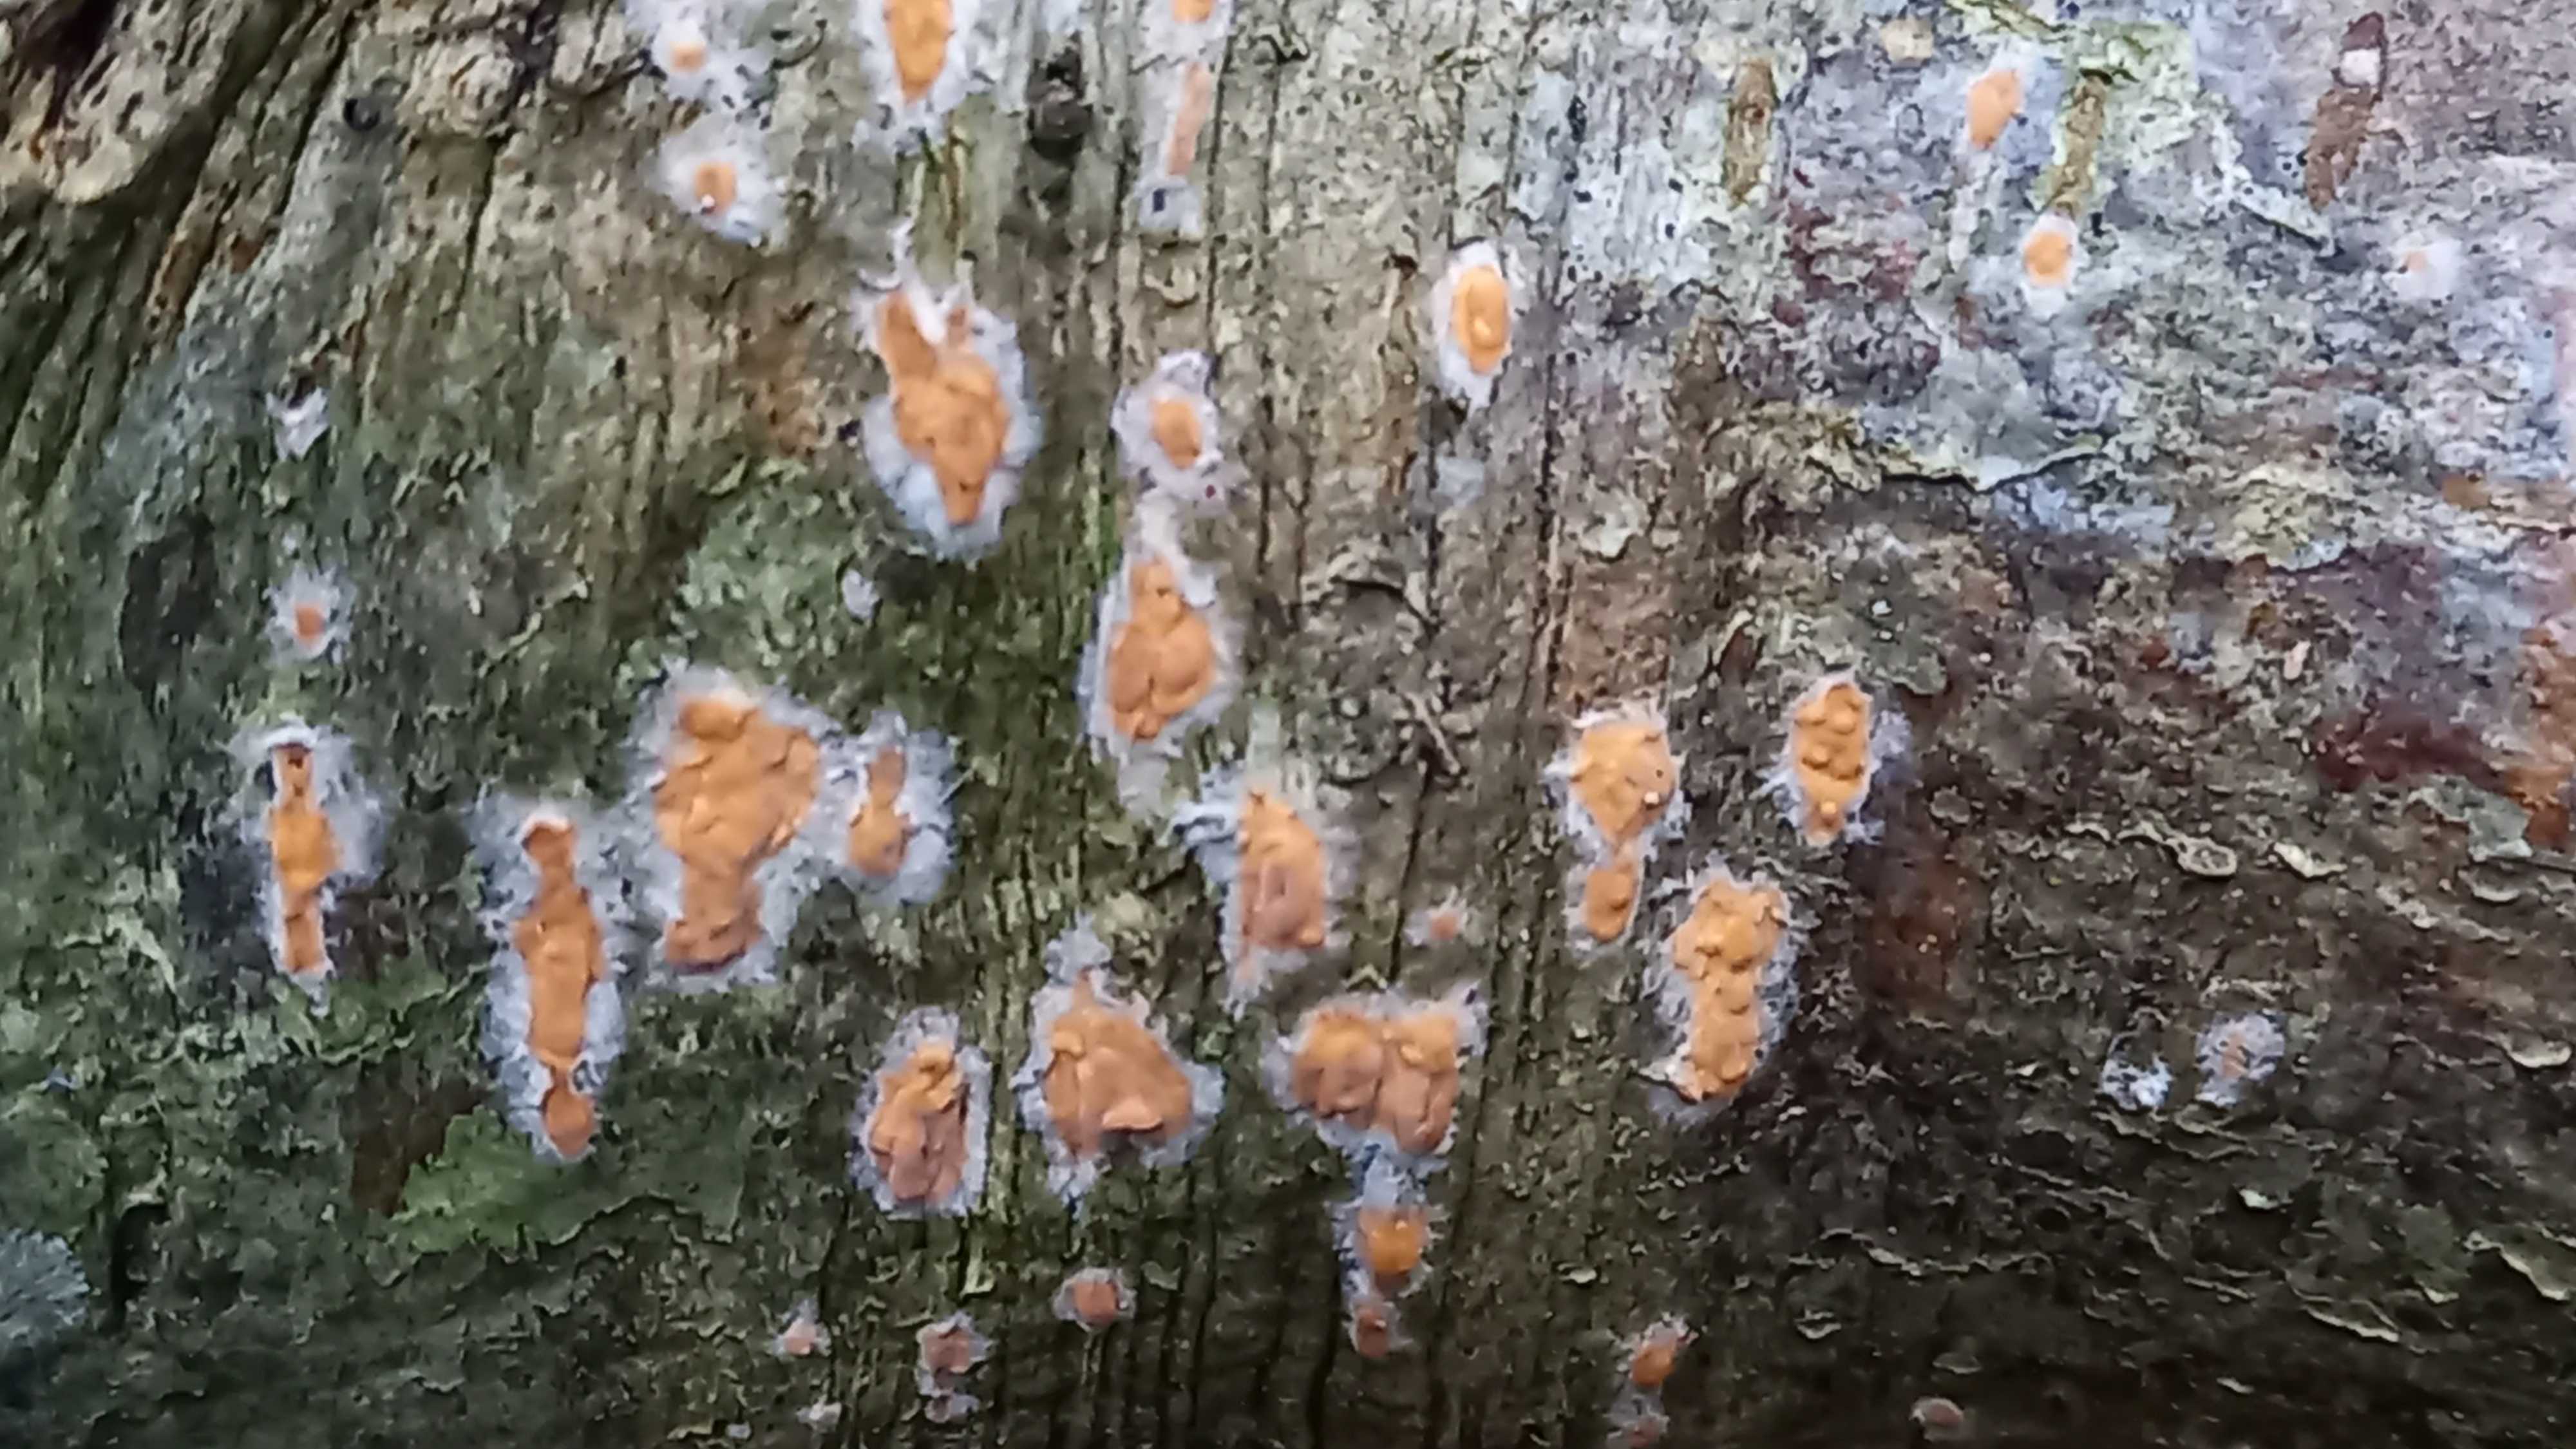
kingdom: Fungi
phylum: Basidiomycota
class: Agaricomycetes
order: Russulales
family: Peniophoraceae
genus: Peniophora
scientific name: Peniophora incarnata
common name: laksefarvet voksskind
